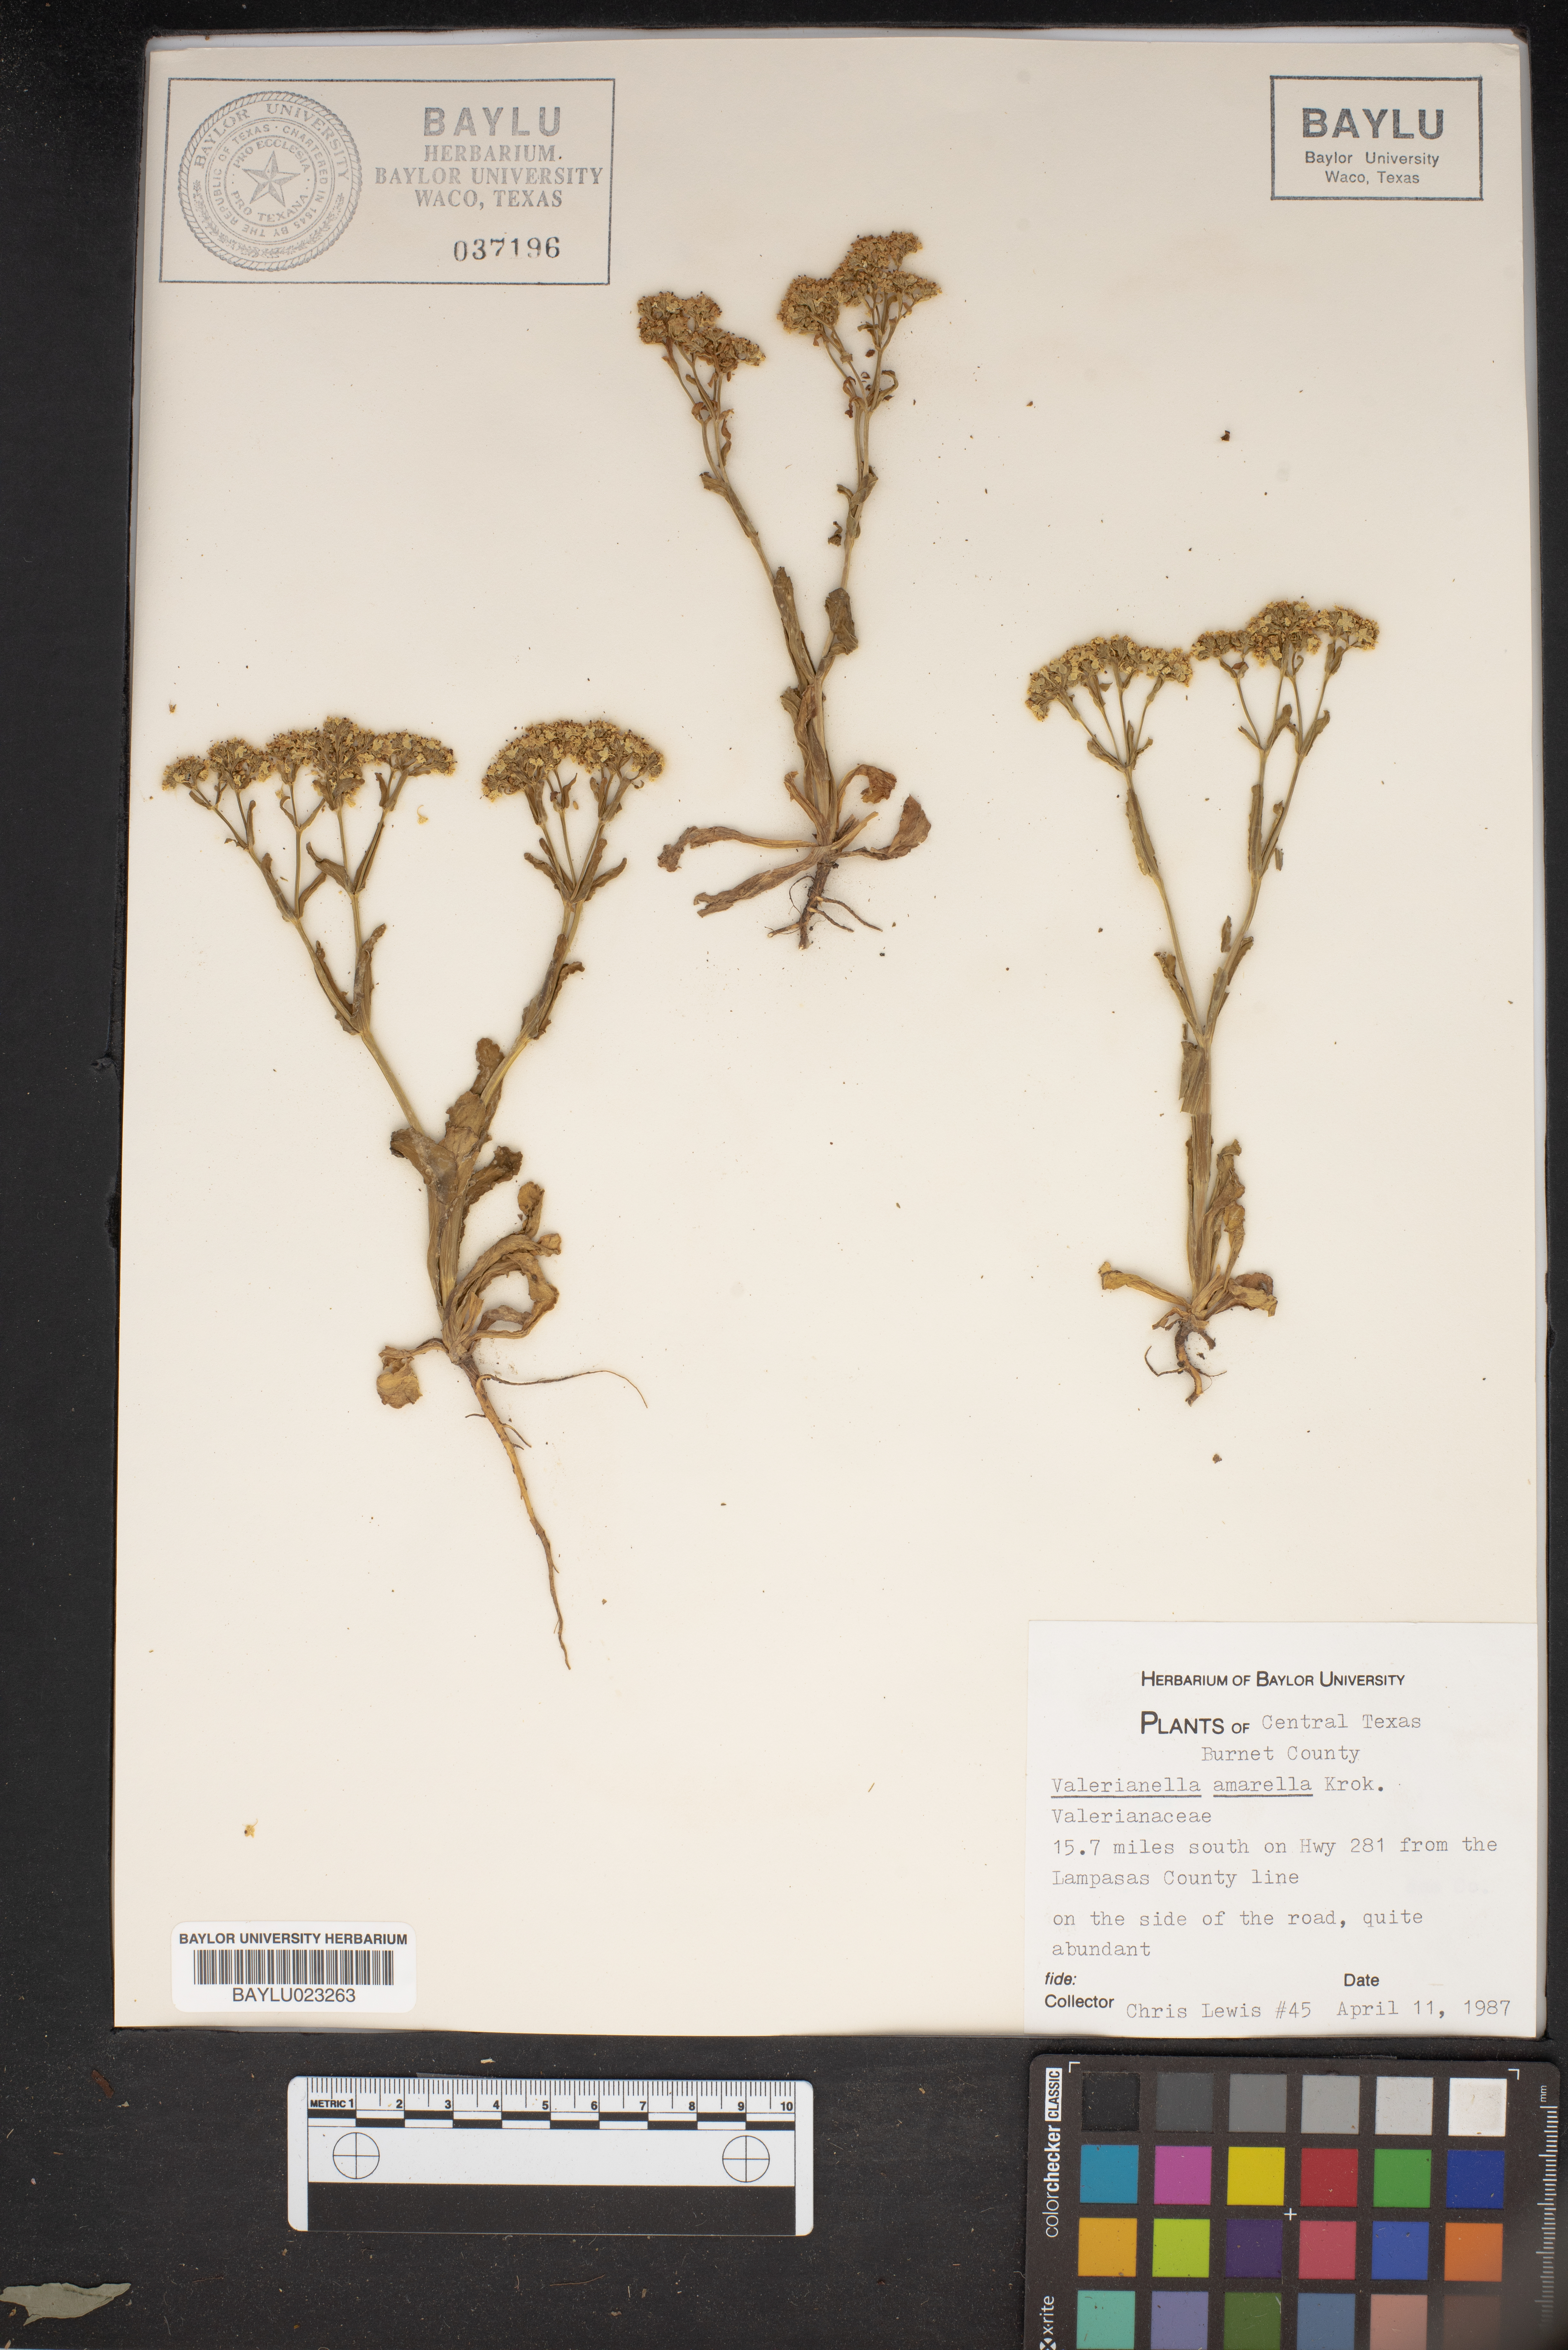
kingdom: Plantae
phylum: Tracheophyta
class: Magnoliopsida
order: Dipsacales
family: Caprifoliaceae
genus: Valerianella
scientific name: Valerianella amarella
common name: Hariy cornsalad
